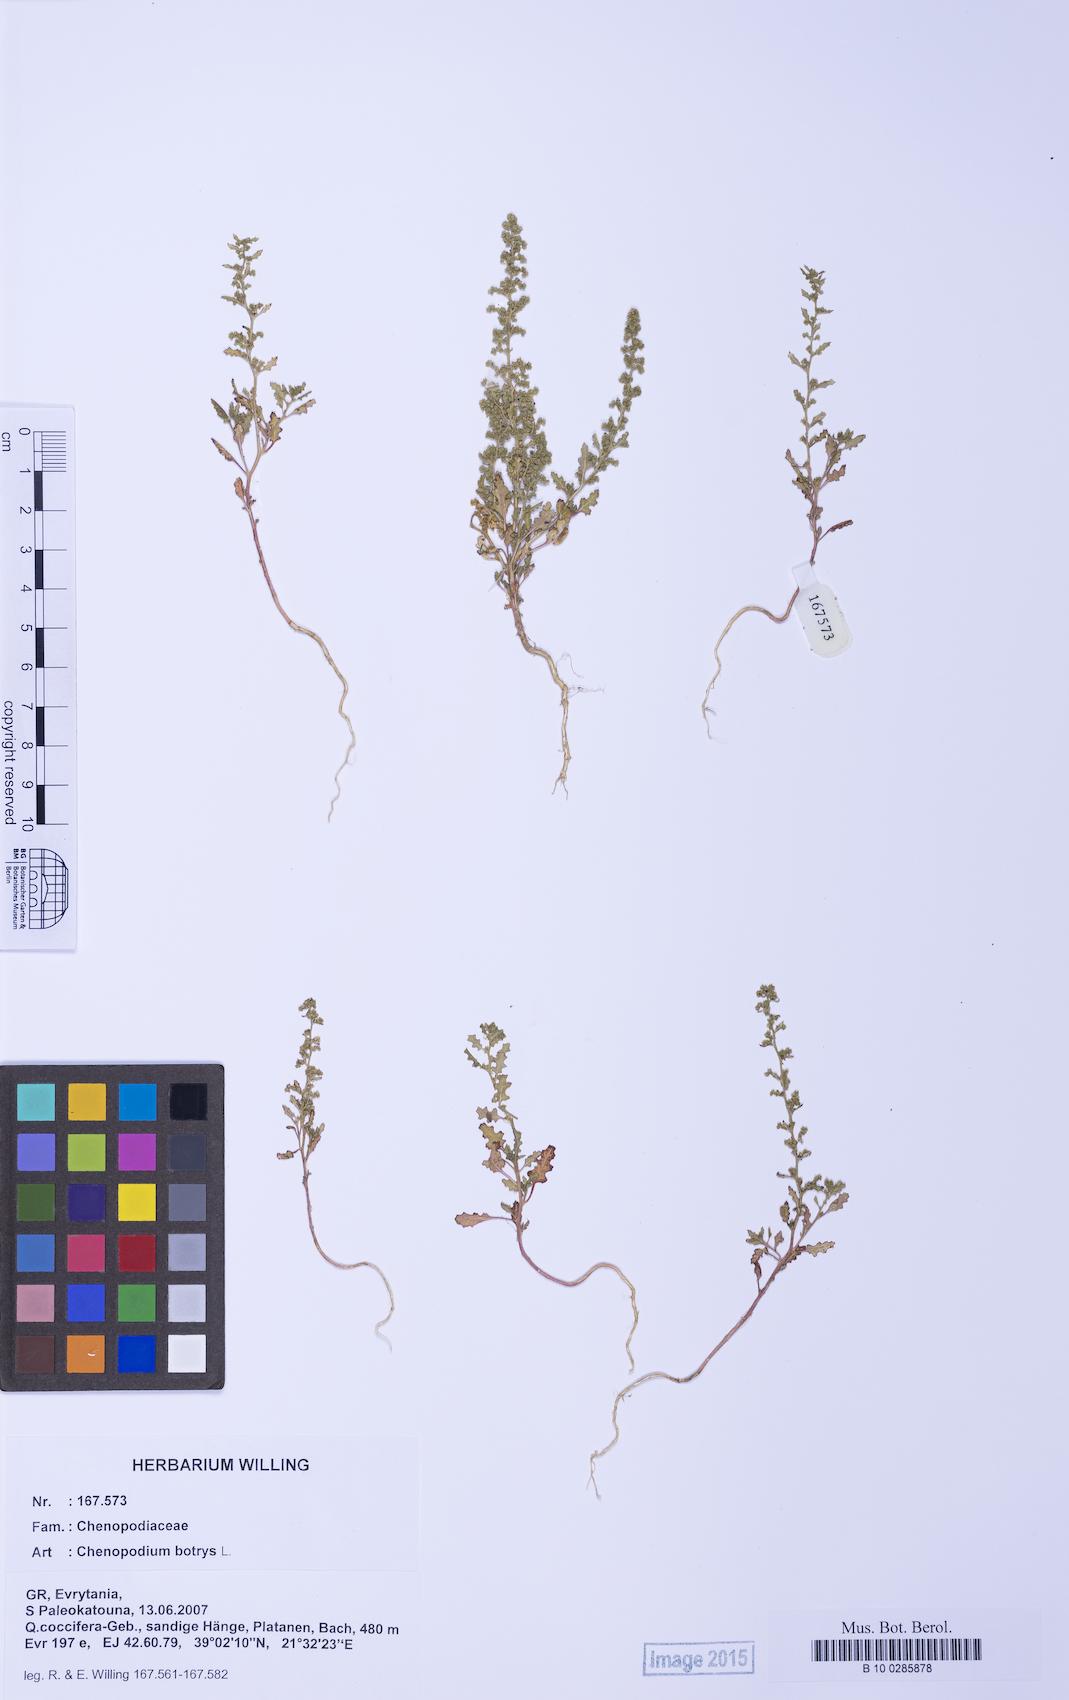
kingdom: Plantae
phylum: Tracheophyta
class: Magnoliopsida
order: Caryophyllales
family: Amaranthaceae
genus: Dysphania
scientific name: Dysphania botrys
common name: Feather-geranium
